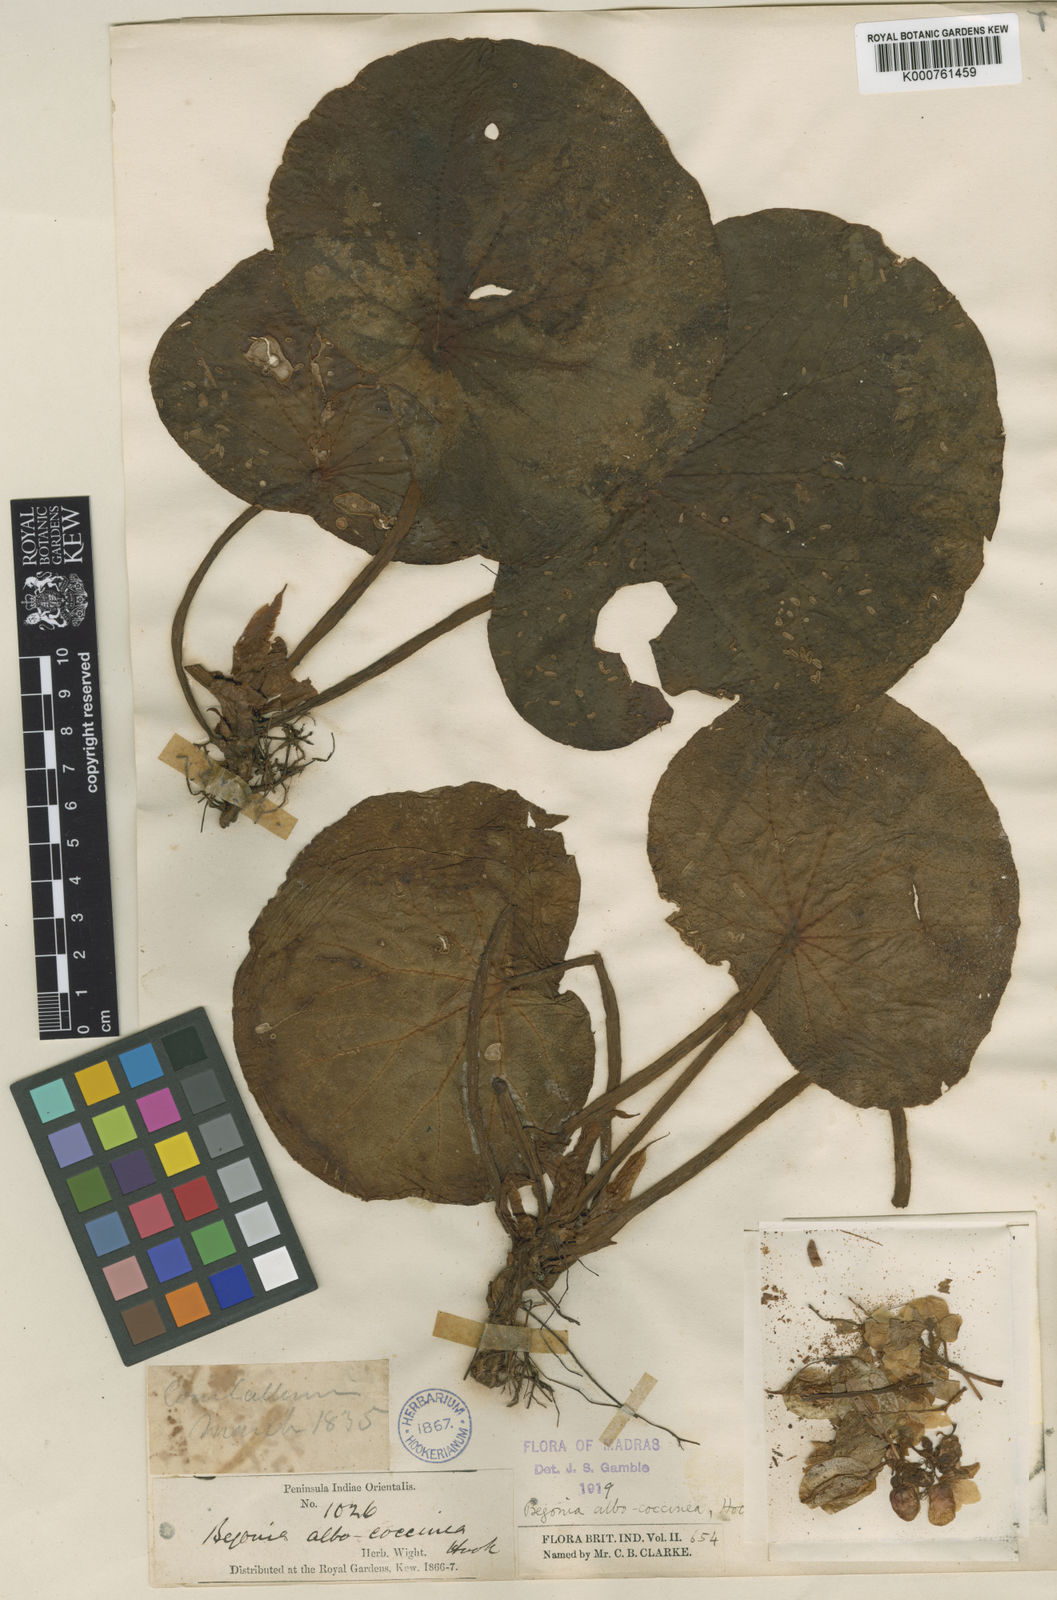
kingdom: Plantae
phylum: Tracheophyta
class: Magnoliopsida
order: Cucurbitales
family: Begoniaceae
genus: Begonia
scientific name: Begonia albococcinea
